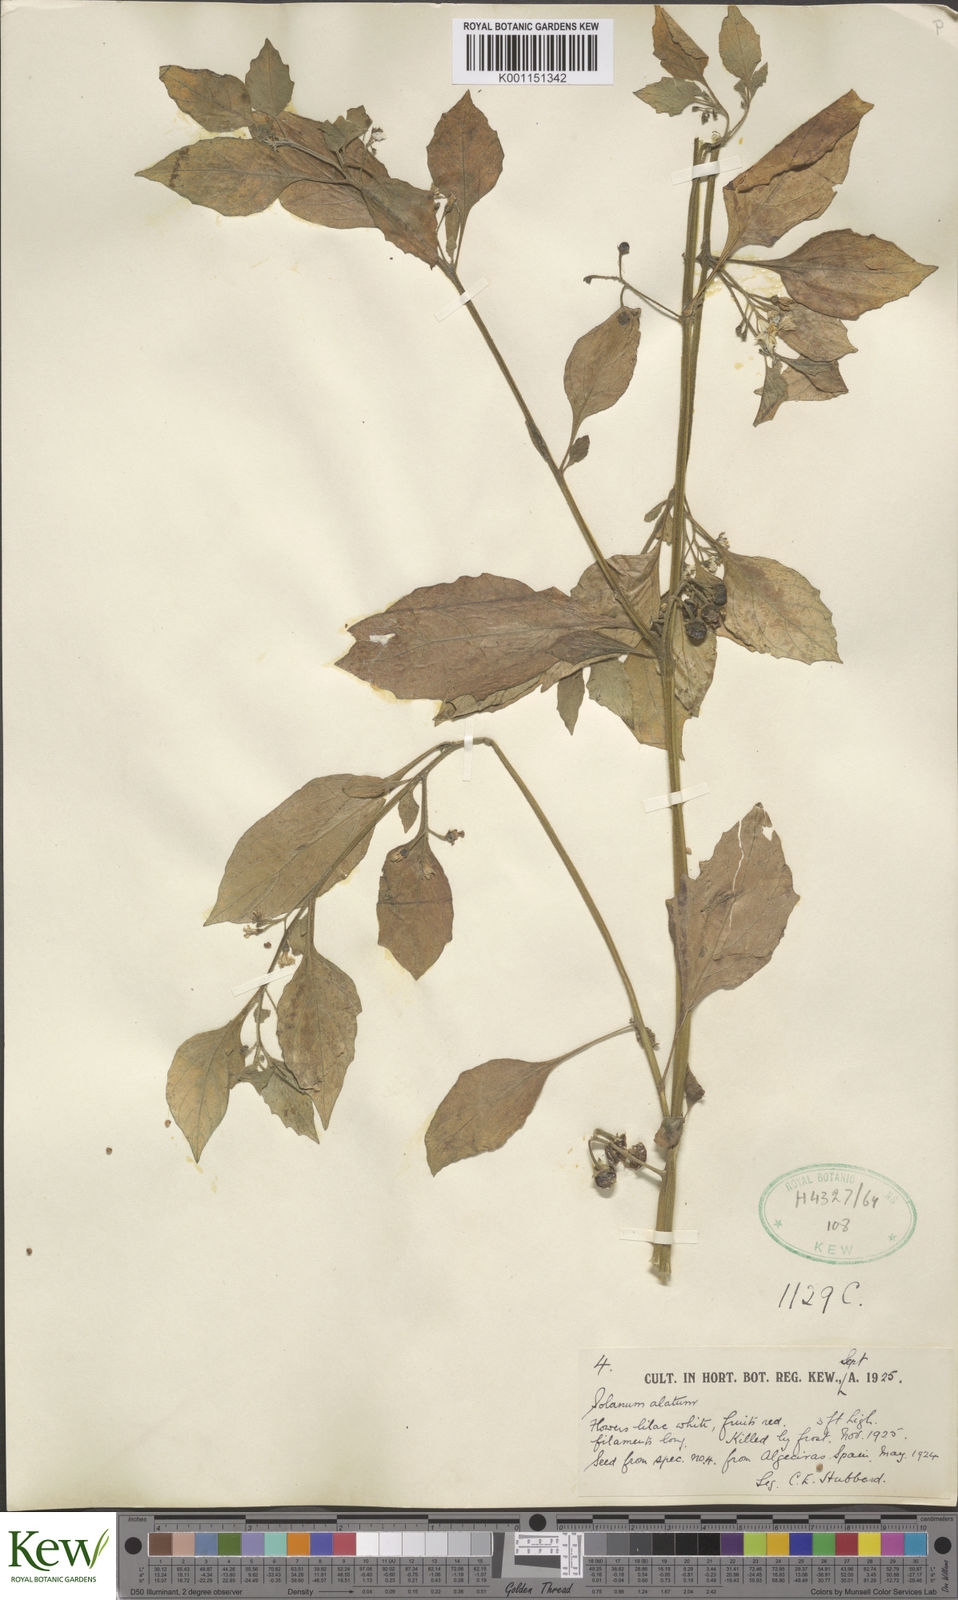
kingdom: Plantae
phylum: Tracheophyta
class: Magnoliopsida
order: Solanales
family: Solanaceae
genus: Solanum
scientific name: Solanum alatum
